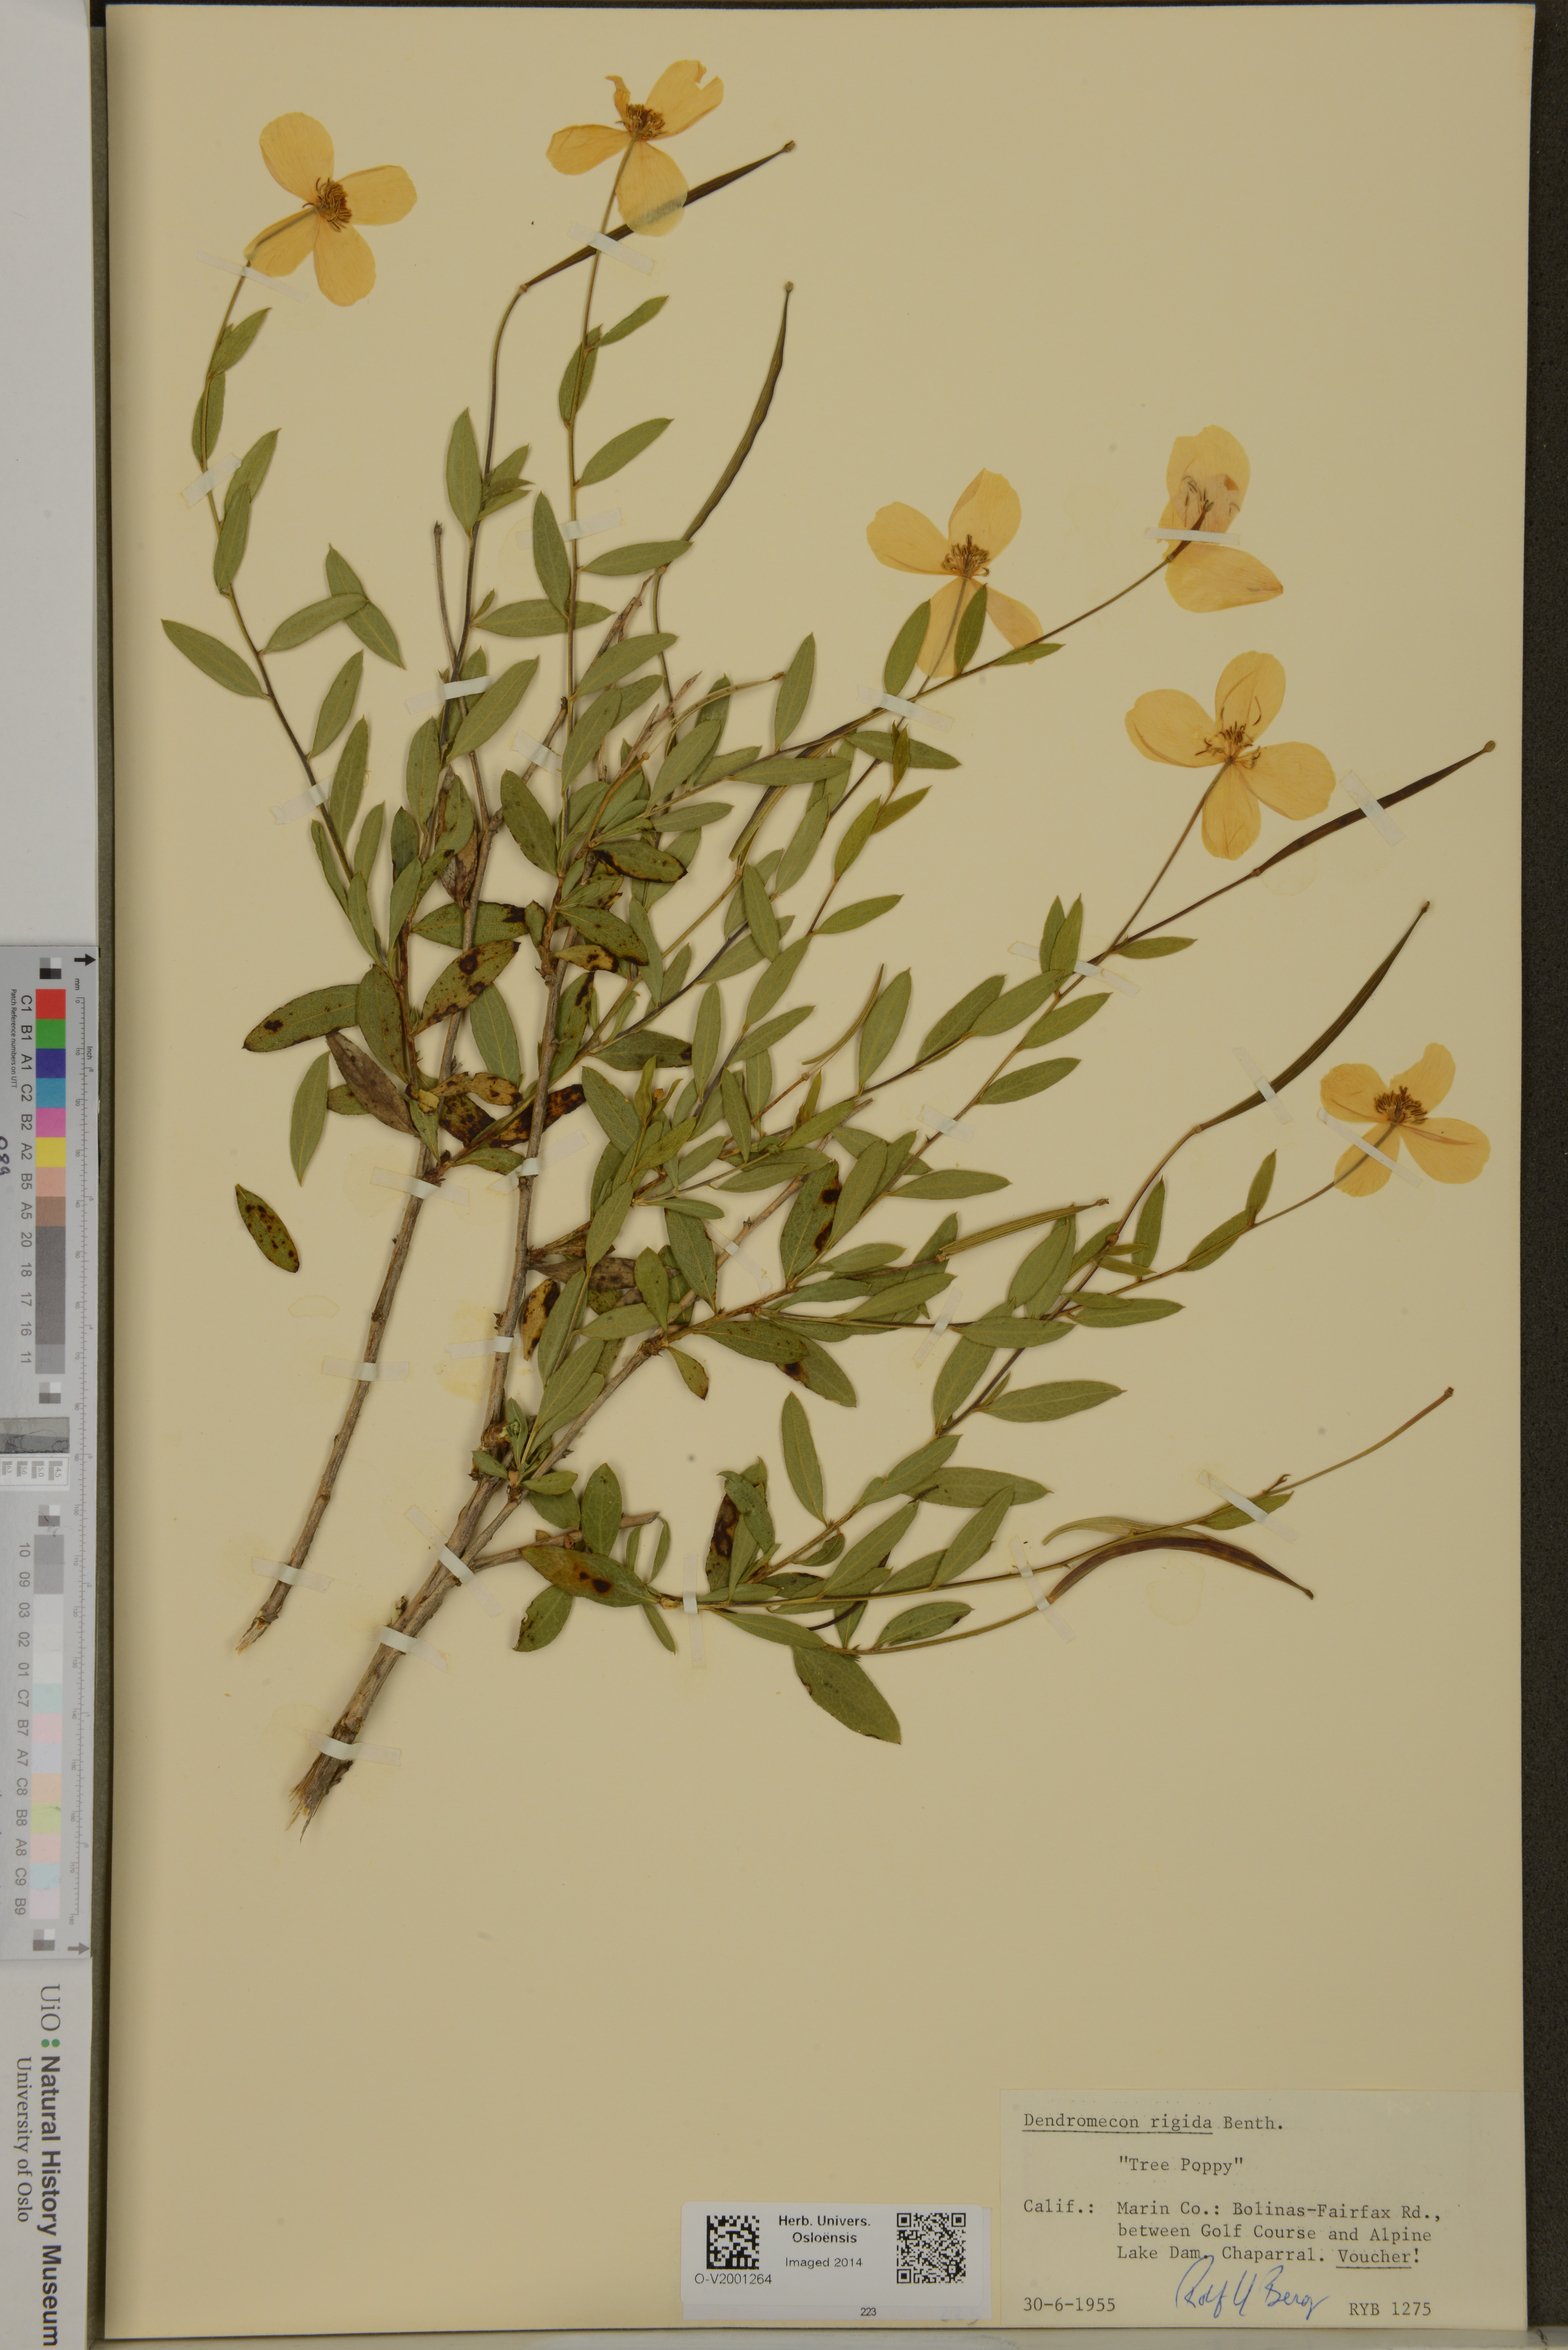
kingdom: Plantae
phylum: Tracheophyta
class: Magnoliopsida
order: Ranunculales
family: Papaveraceae
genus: Dendromecon
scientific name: Dendromecon rigida
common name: Tree poppy
